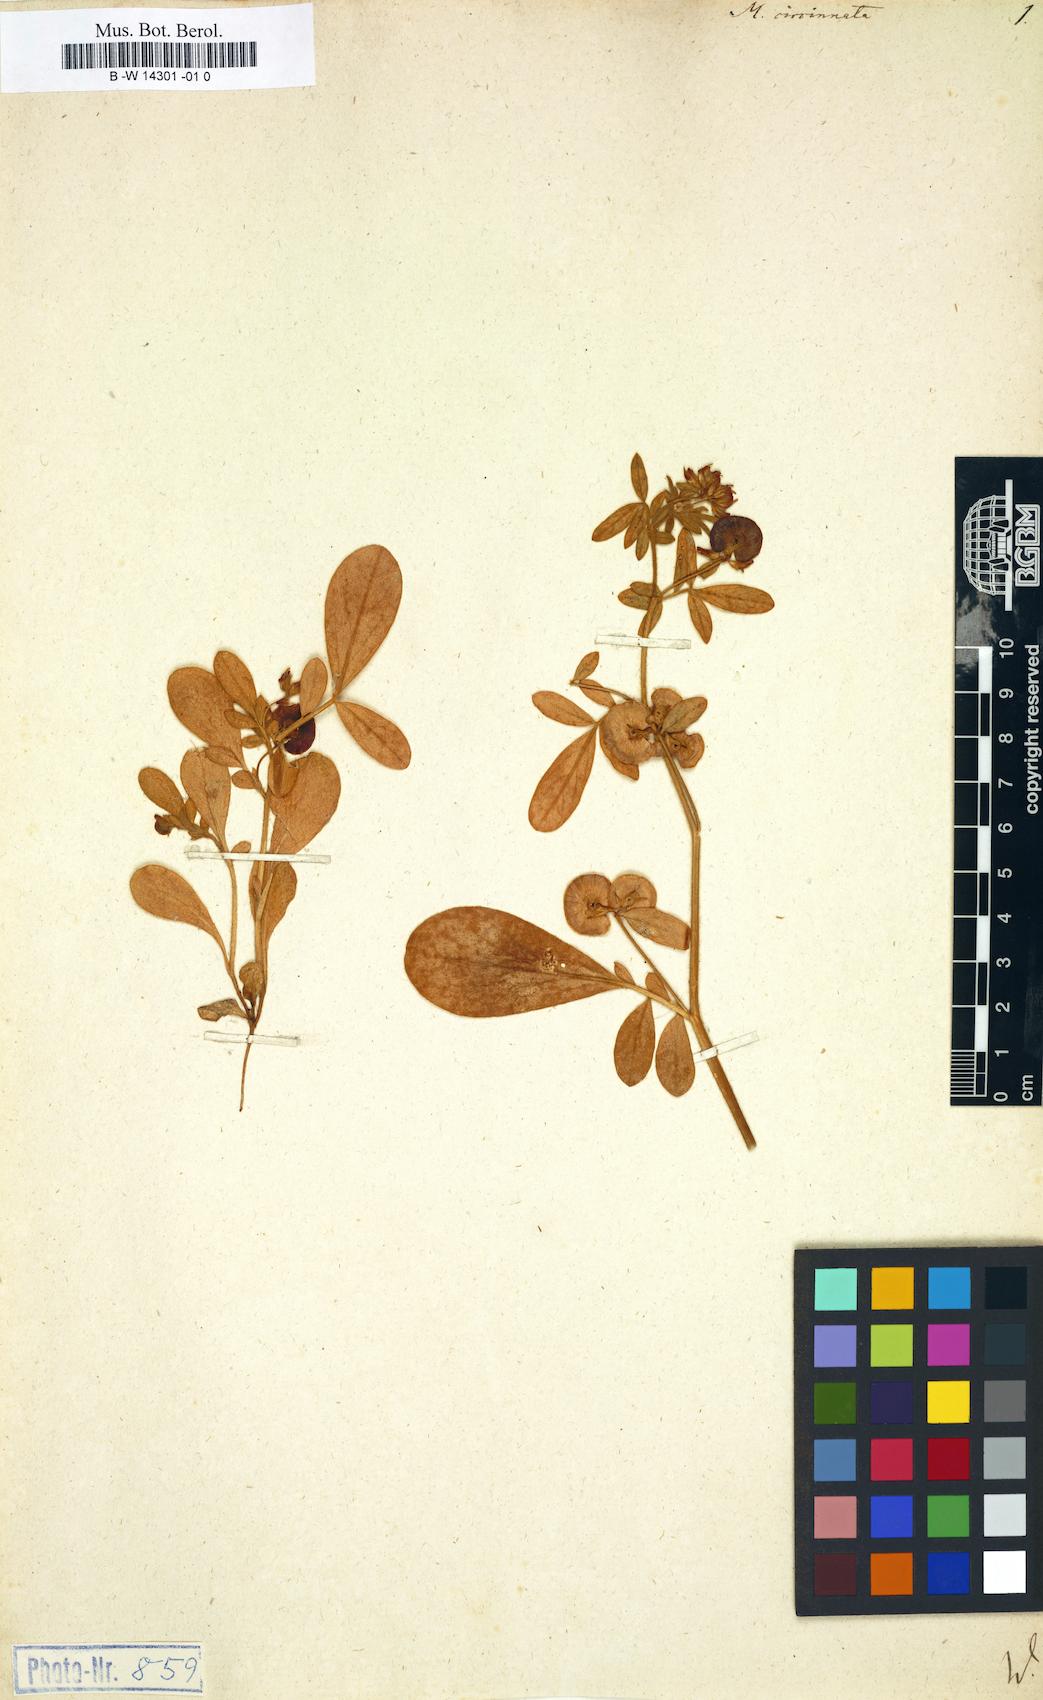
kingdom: Plantae
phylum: Tracheophyta
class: Magnoliopsida
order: Fabales
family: Fabaceae
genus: Anthyllis
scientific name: Anthyllis circinnata
